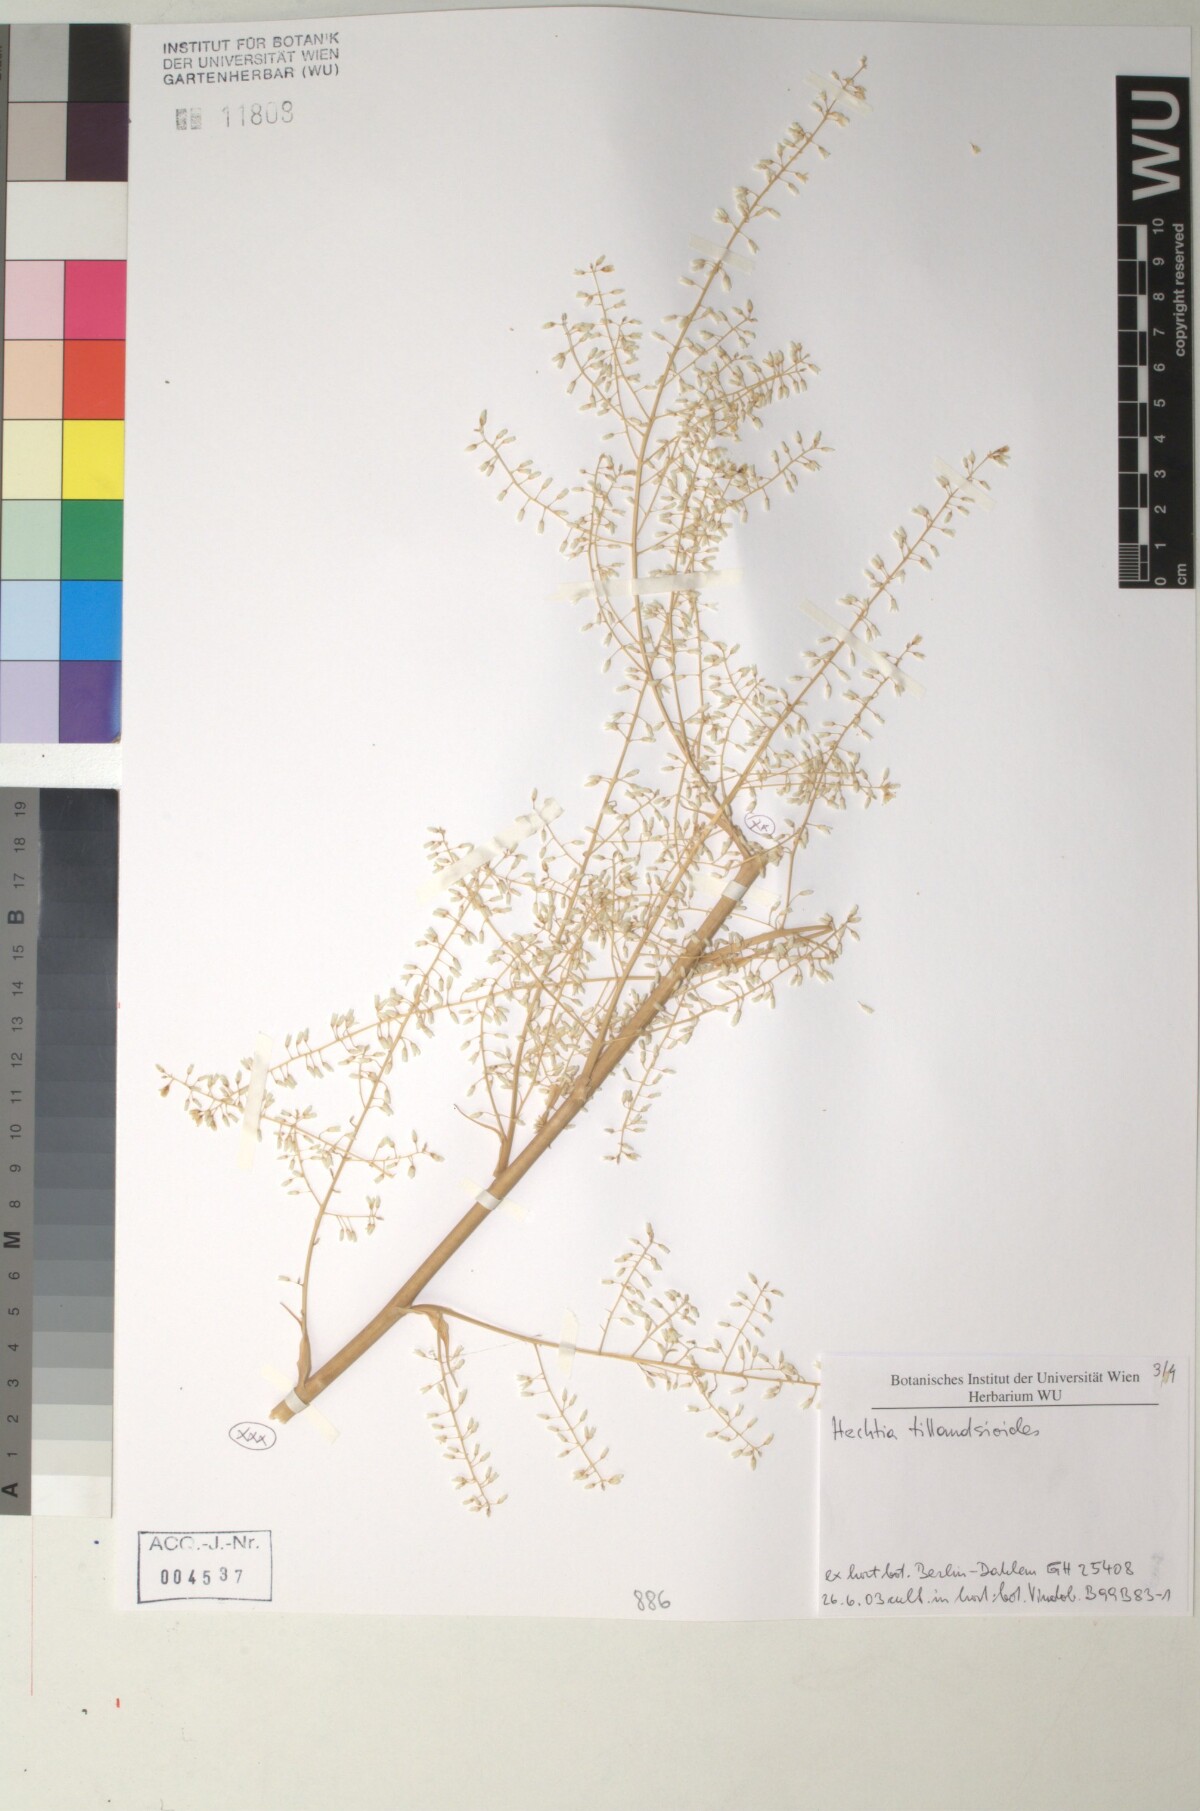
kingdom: Plantae
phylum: Tracheophyta
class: Liliopsida
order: Poales
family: Bromeliaceae
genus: Hechtia
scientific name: Hechtia
